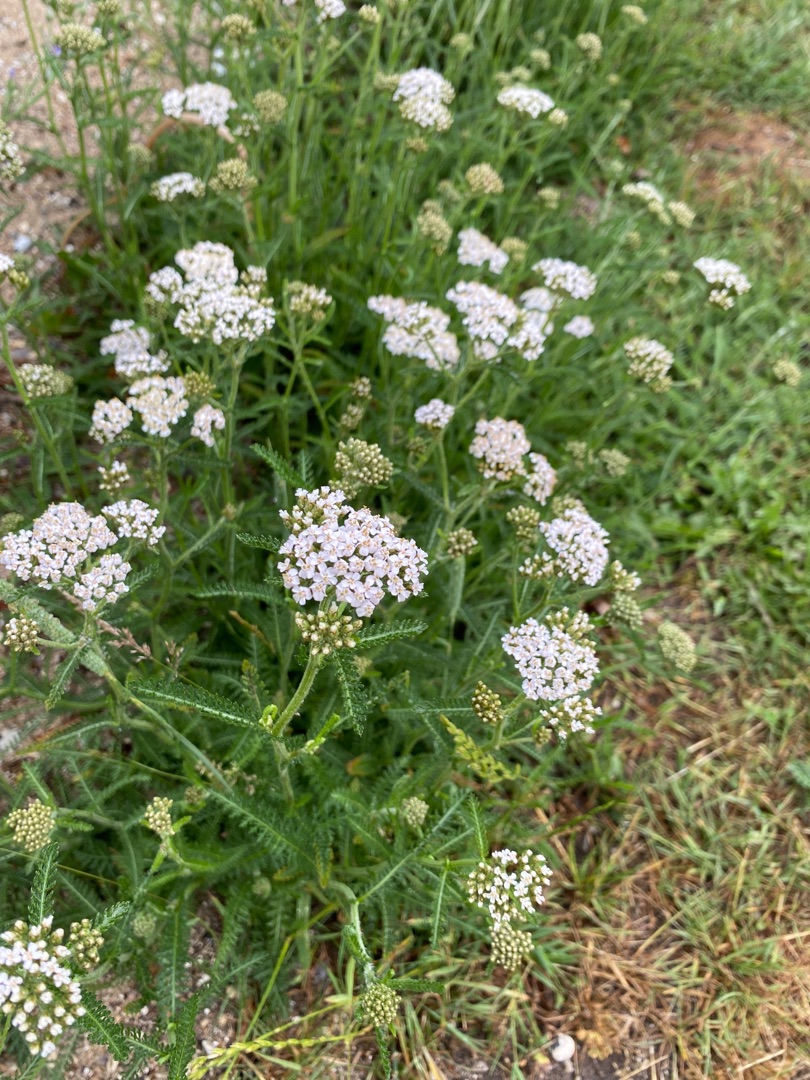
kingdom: Plantae
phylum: Tracheophyta
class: Magnoliopsida
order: Asterales
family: Asteraceae
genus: Achillea
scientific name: Achillea millefolium
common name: Almindelig røllike
